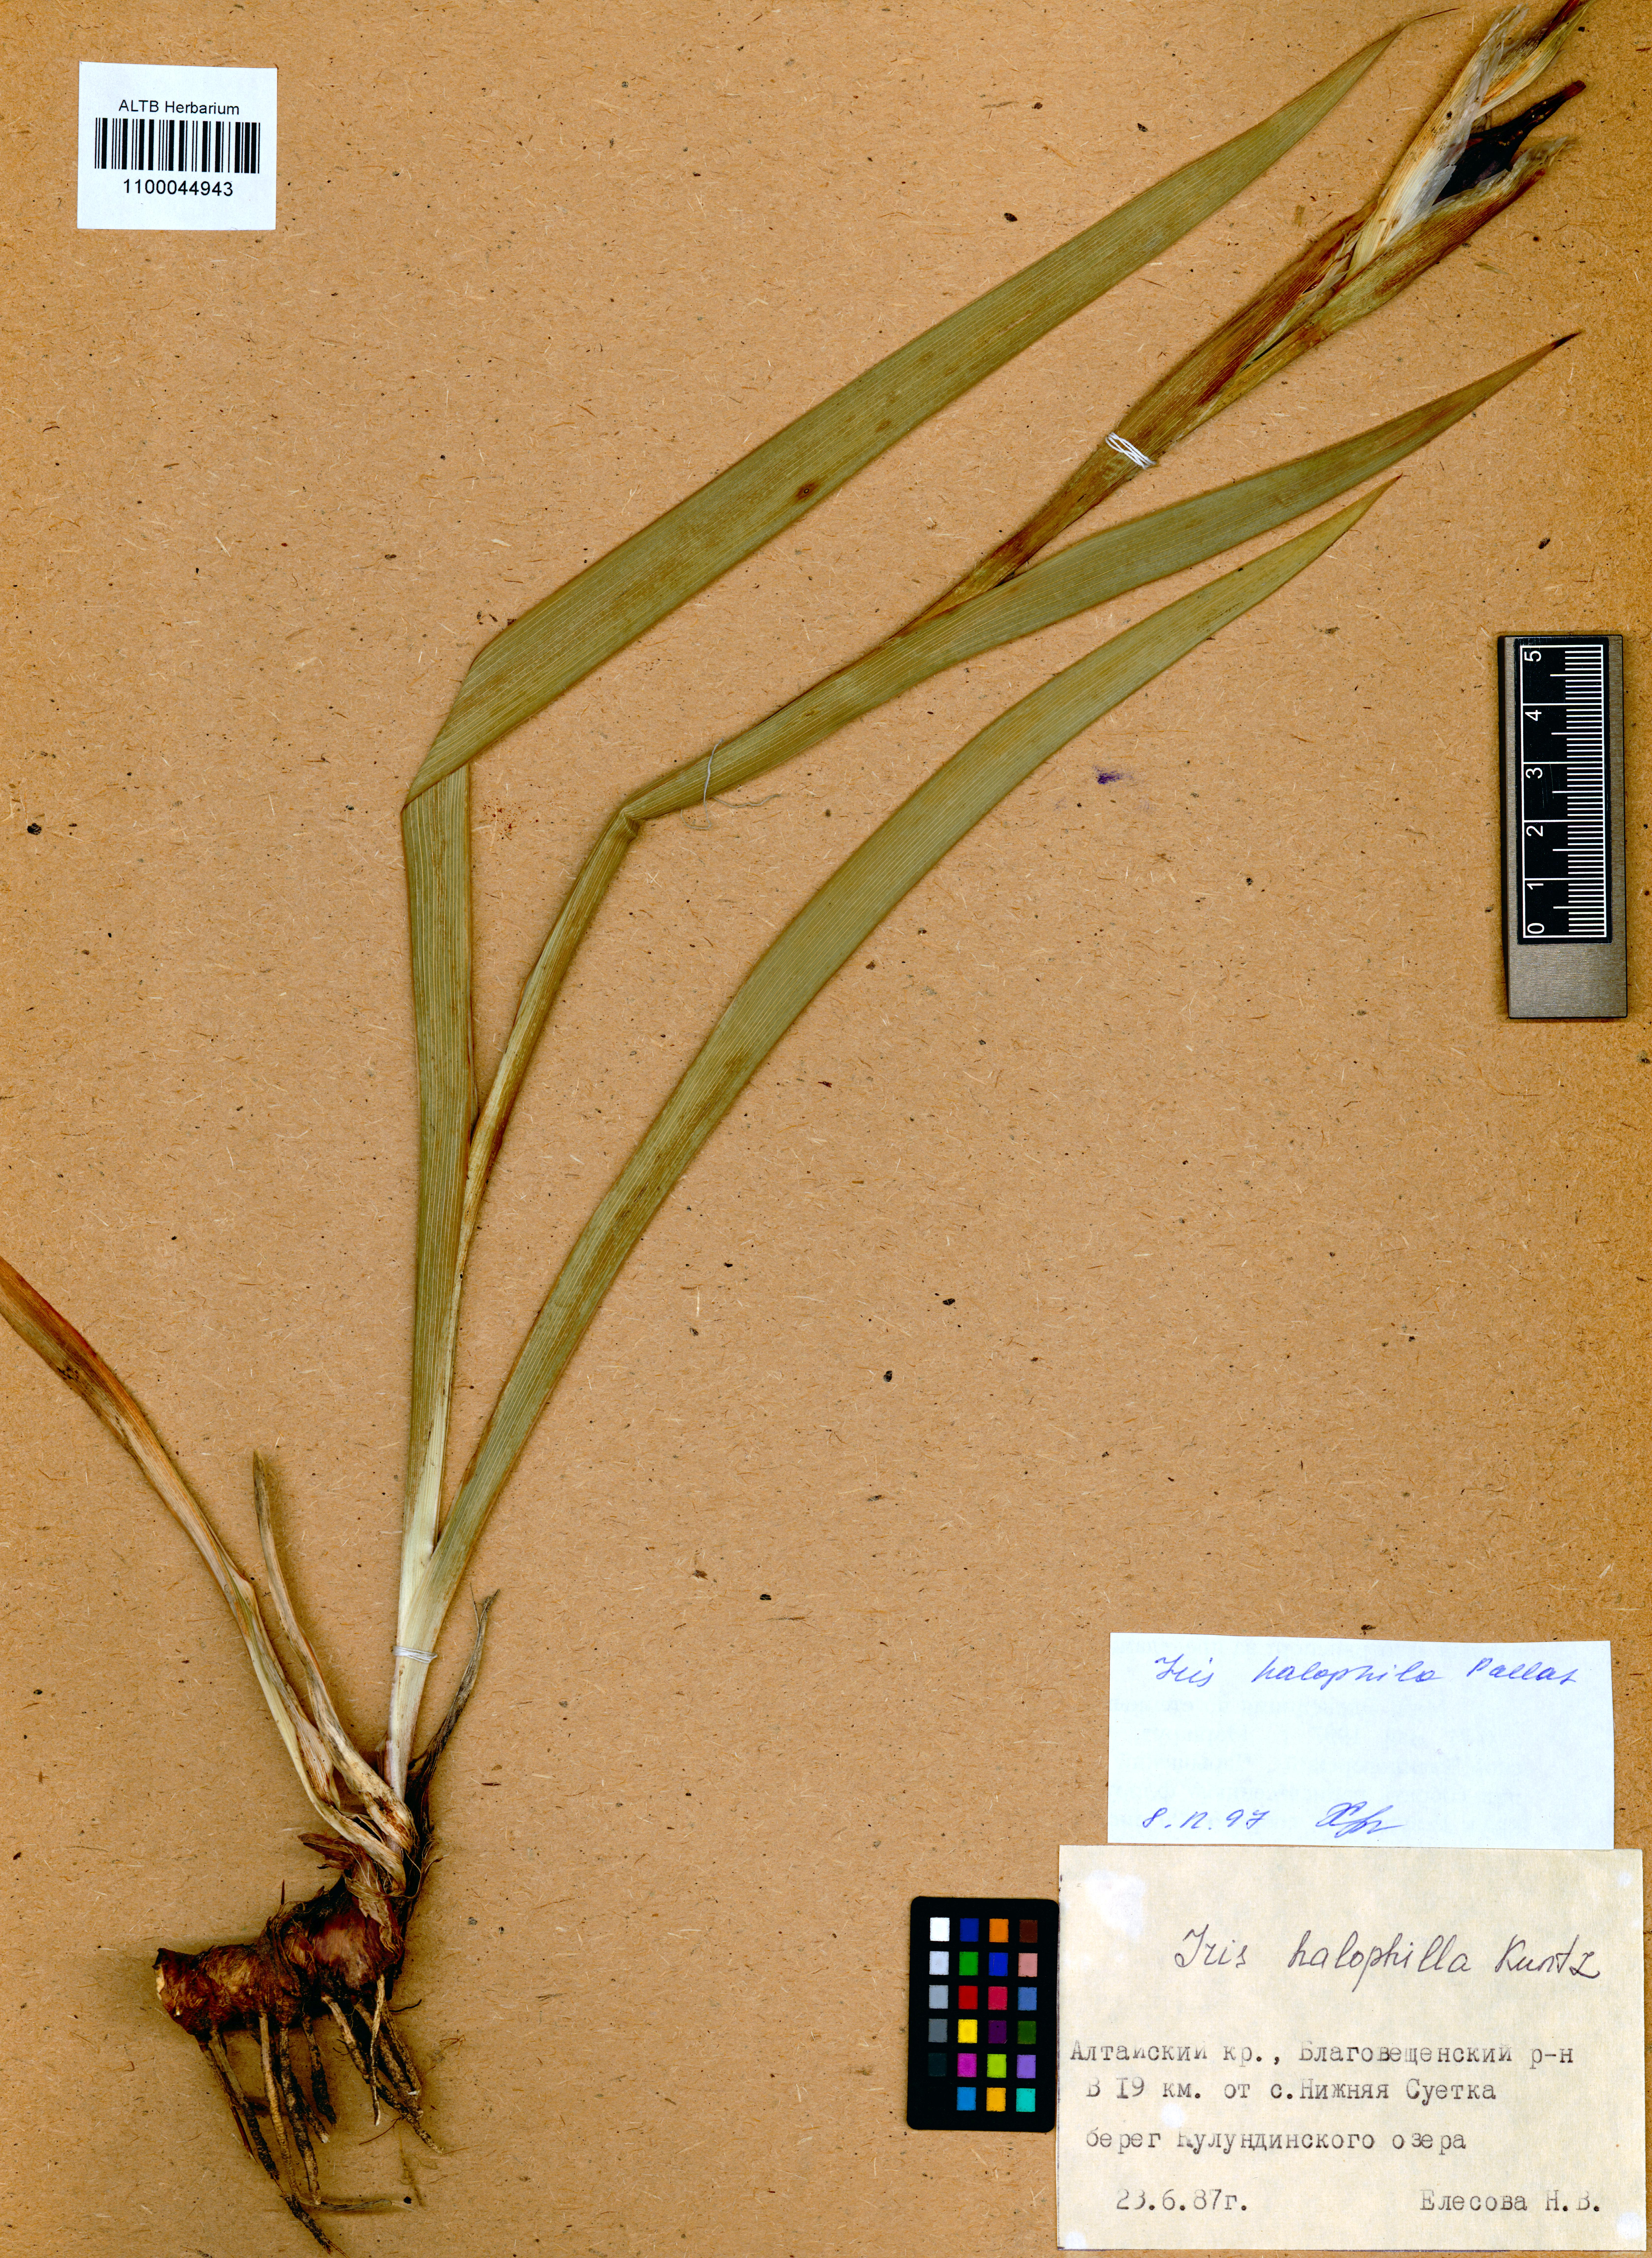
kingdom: Plantae
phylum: Tracheophyta
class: Liliopsida
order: Asparagales
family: Iridaceae
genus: Iris
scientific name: Iris halophila
